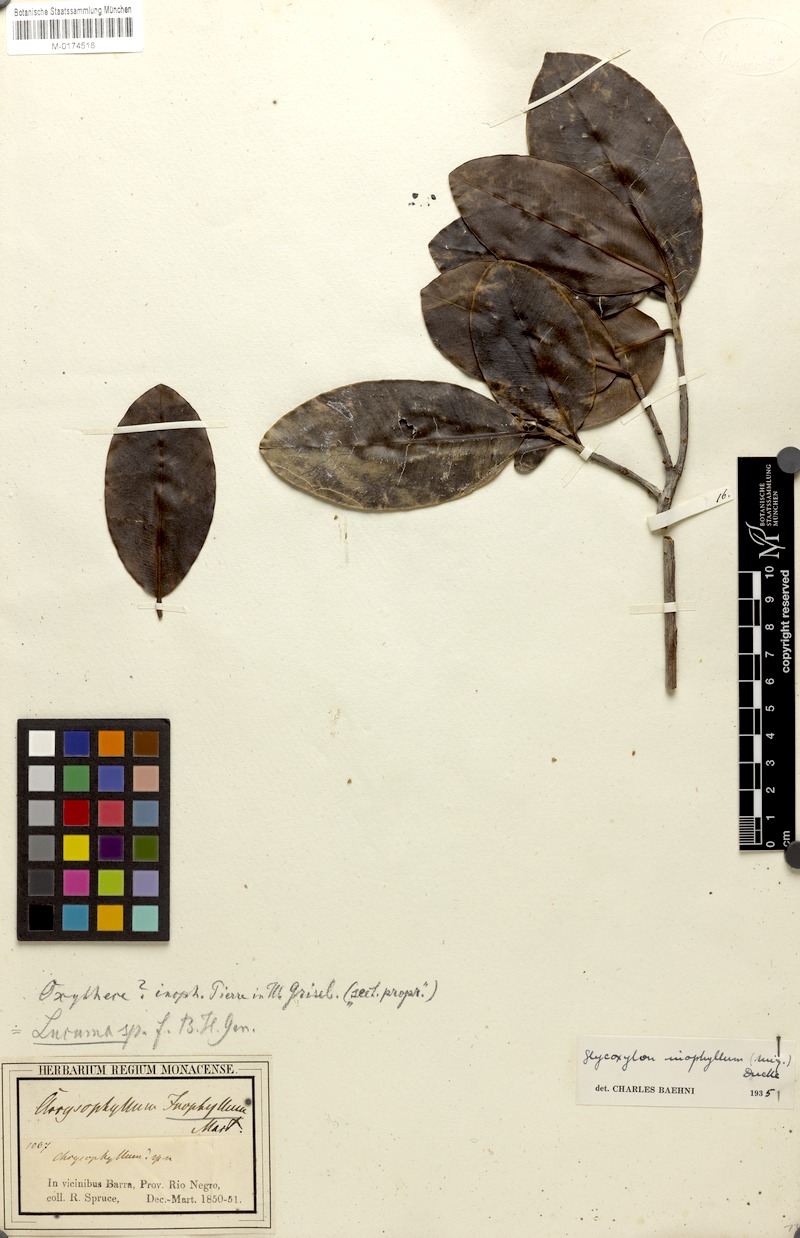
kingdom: Plantae
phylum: Tracheophyta
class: Magnoliopsida
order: Ericales
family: Sapotaceae
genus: Pradosia
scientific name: Pradosia schomburgkiana
